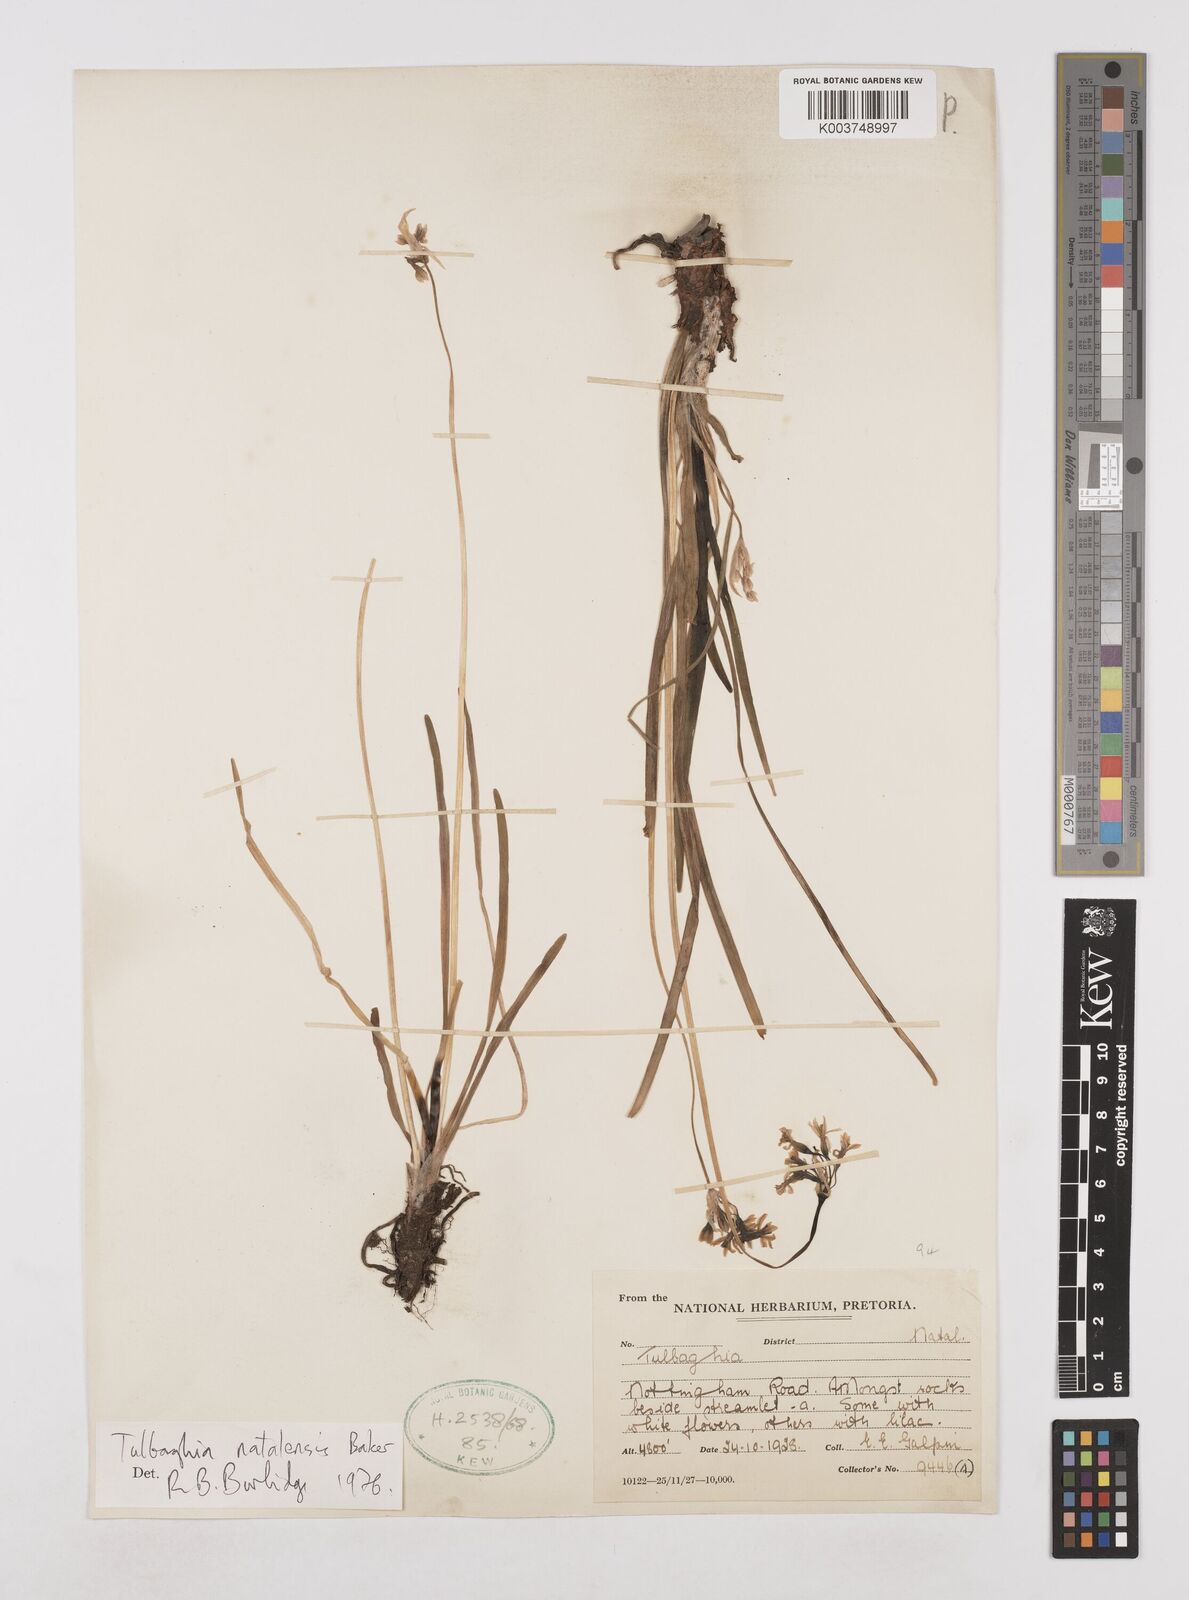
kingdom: Plantae
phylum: Tracheophyta
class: Liliopsida
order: Asparagales
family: Amaryllidaceae
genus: Tulbaghia
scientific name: Tulbaghia natalensis
